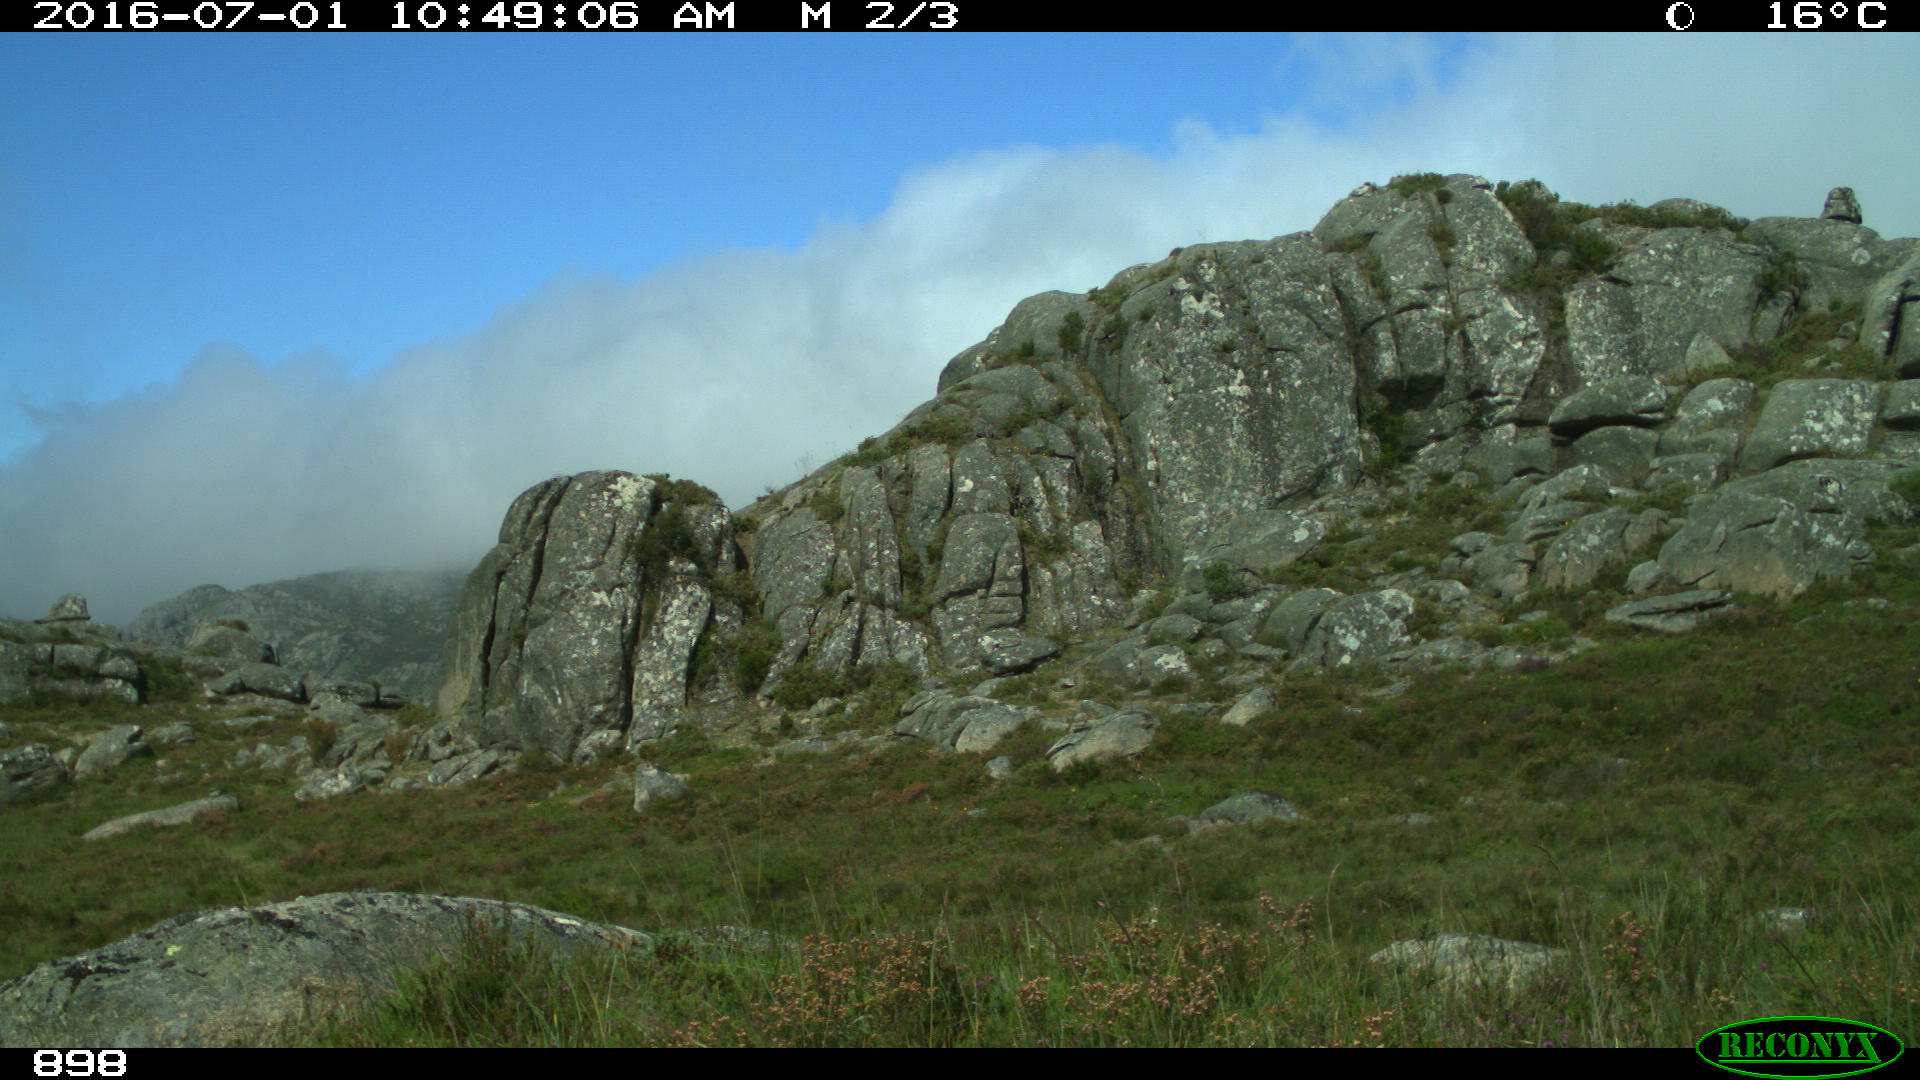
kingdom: Animalia
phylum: Chordata
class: Mammalia
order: Perissodactyla
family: Equidae
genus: Equus
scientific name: Equus caballus
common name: Horse
